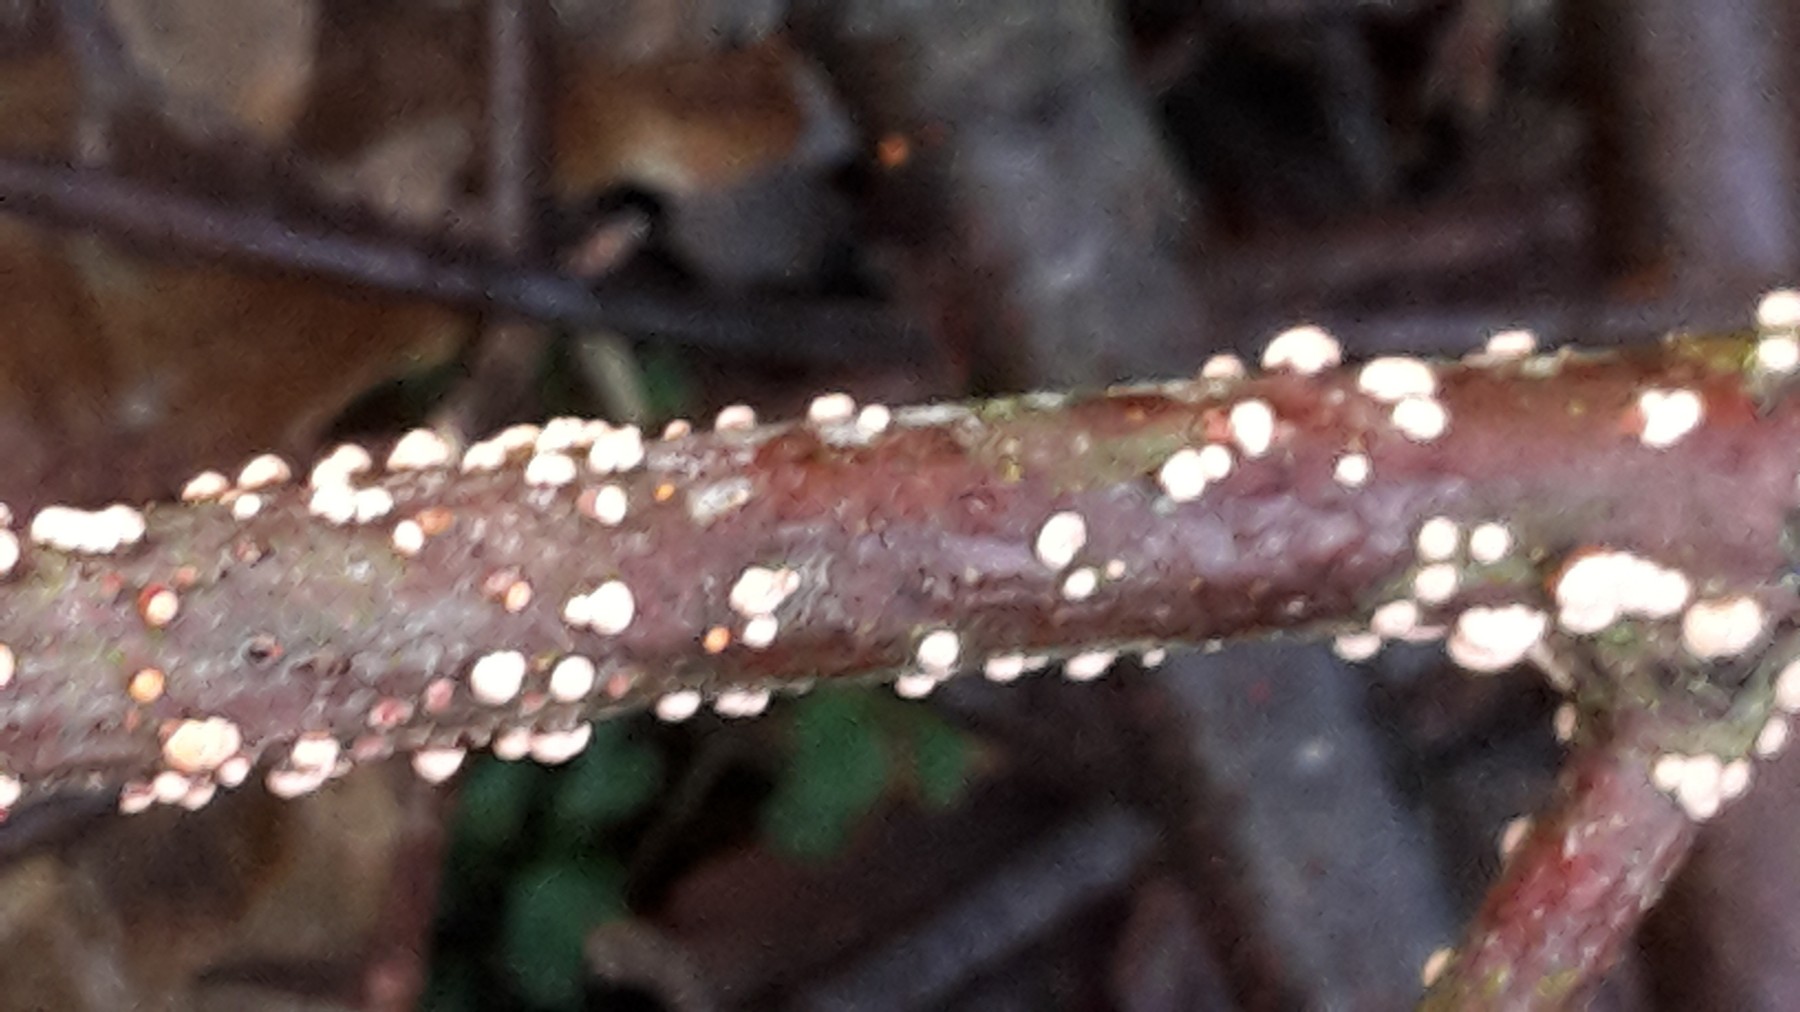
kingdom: Fungi
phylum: Ascomycota
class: Sordariomycetes
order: Hypocreales
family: Nectriaceae
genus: Nectria
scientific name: Nectria cinnabarina
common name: almindelig cinnobersvamp
